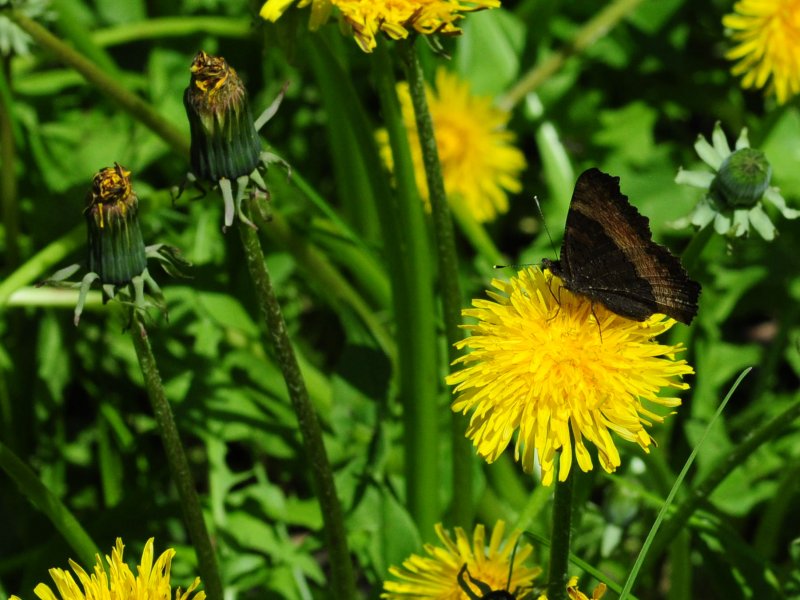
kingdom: Animalia
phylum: Arthropoda
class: Insecta
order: Lepidoptera
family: Nymphalidae
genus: Aglais
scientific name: Aglais milberti
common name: Milbert's Tortoiseshell
